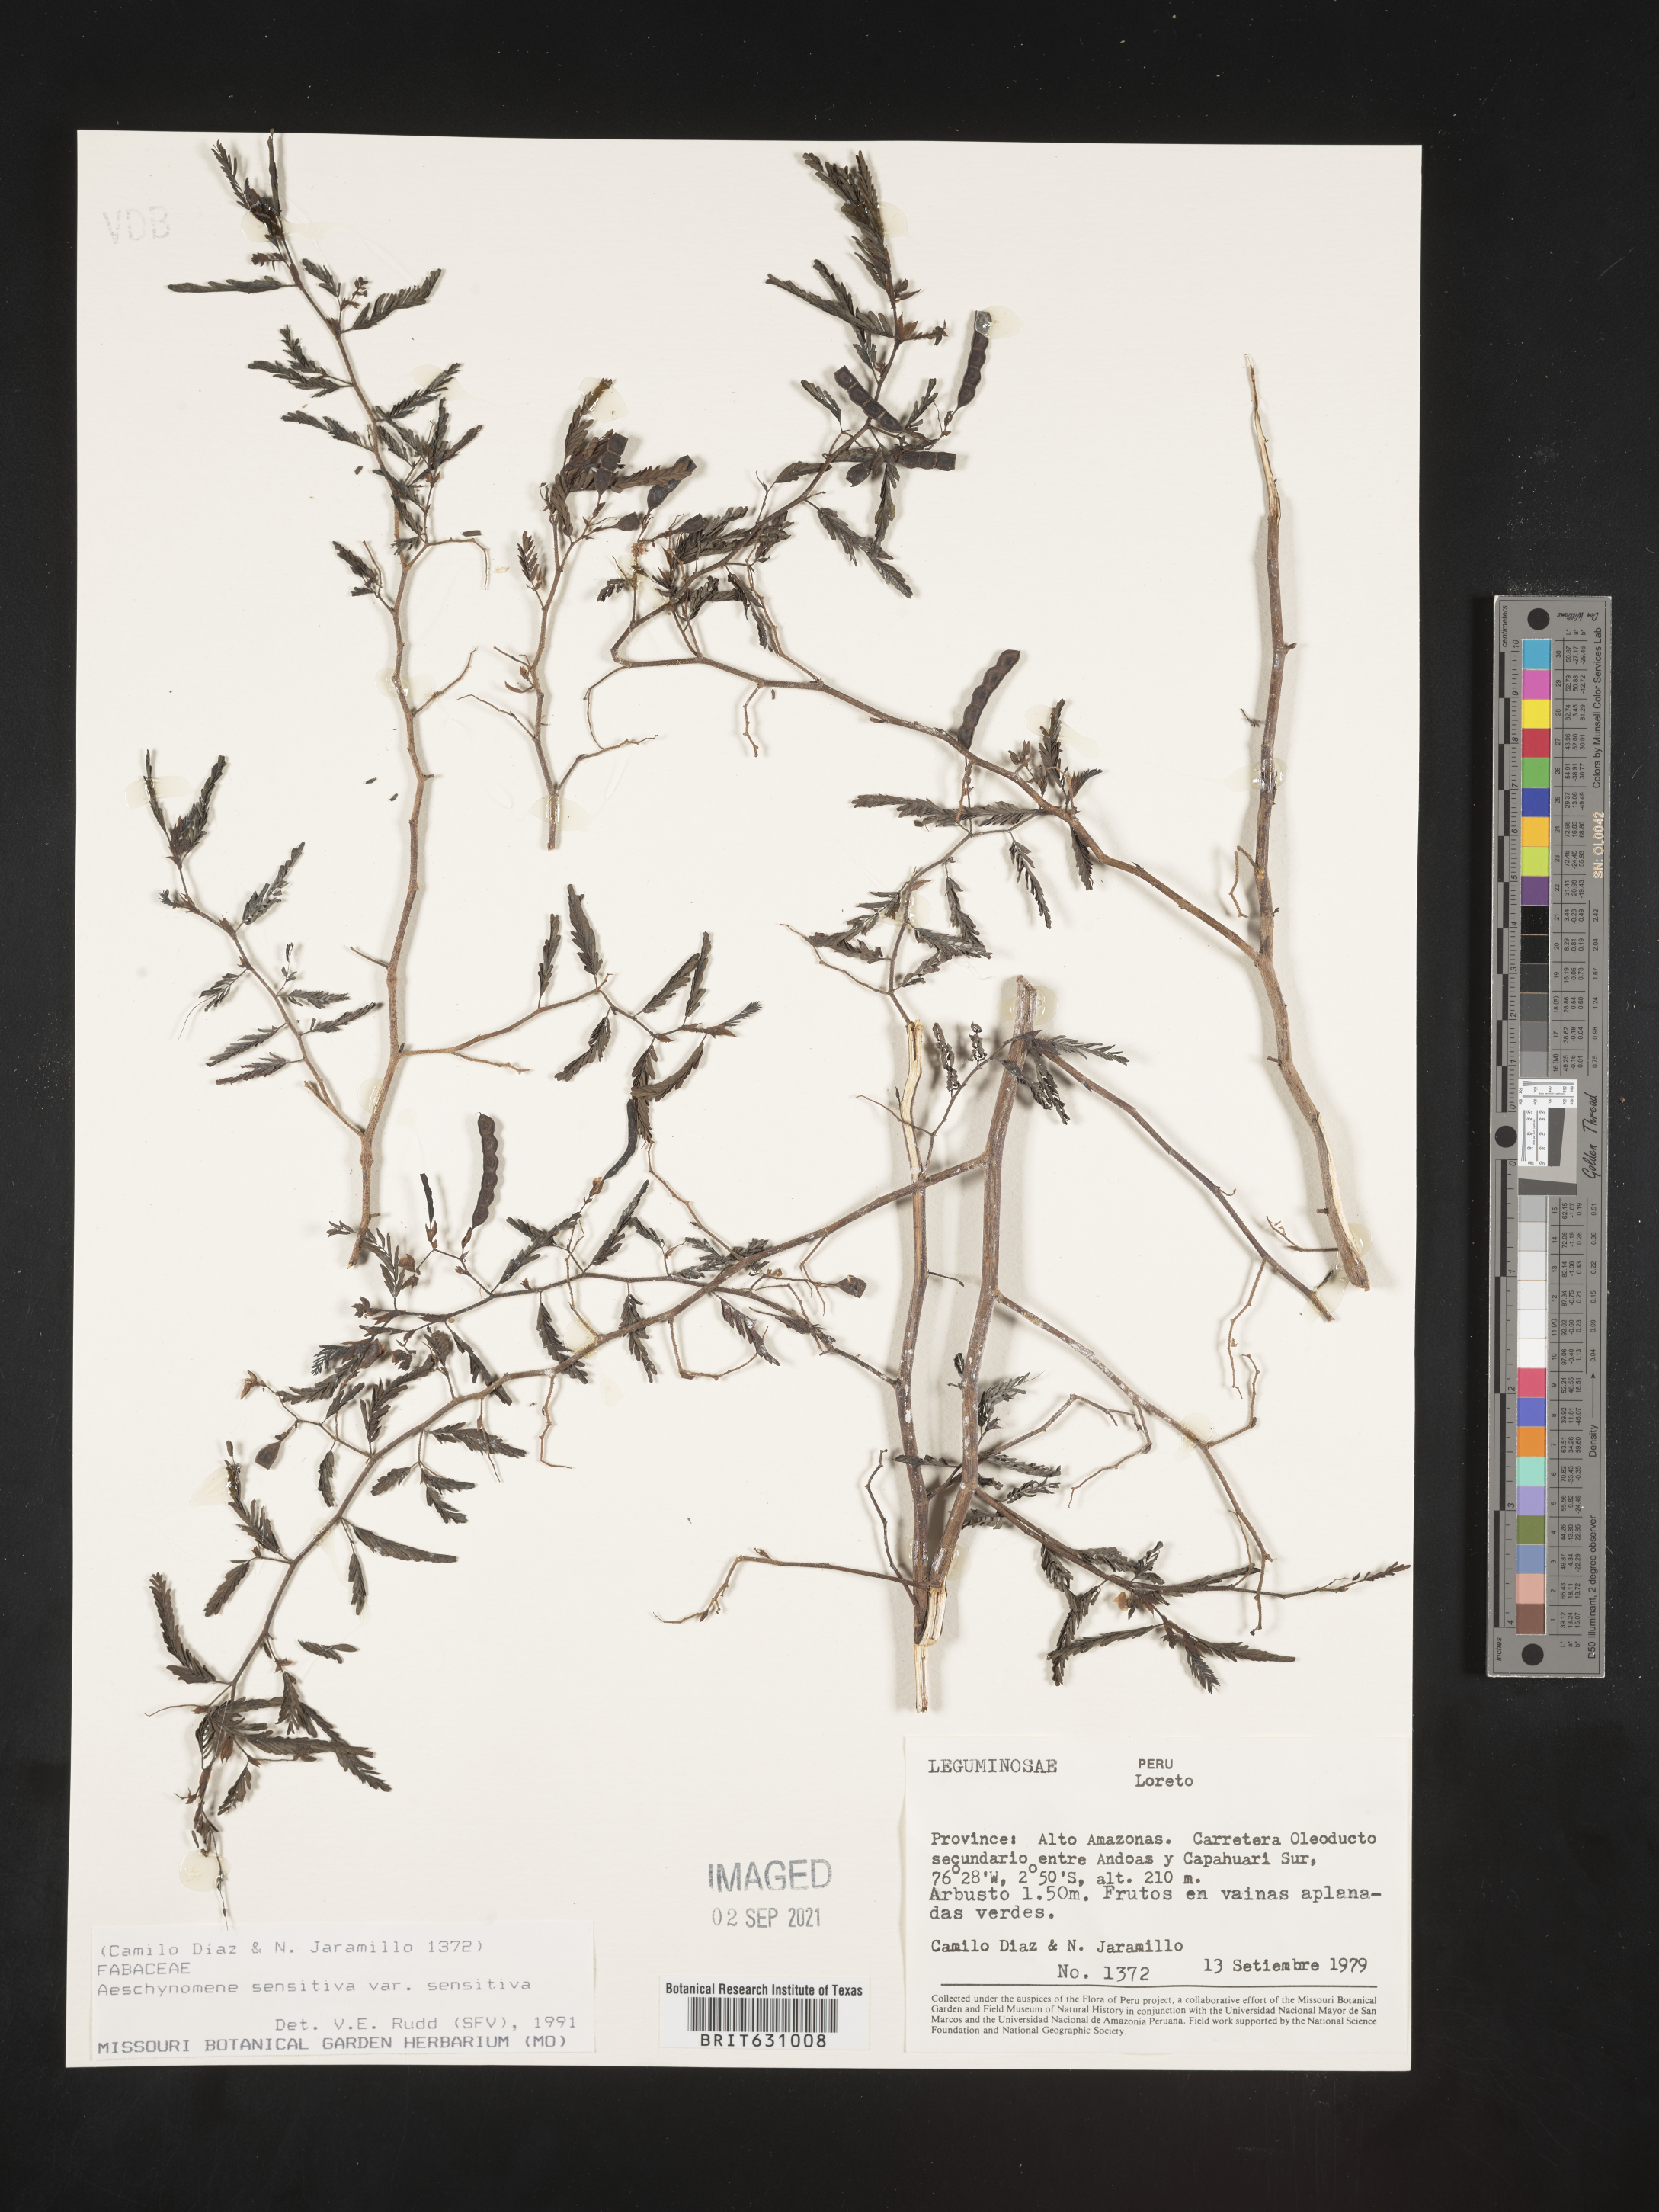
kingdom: Plantae
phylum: Tracheophyta
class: Magnoliopsida
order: Fabales
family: Fabaceae
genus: Aeschynomene
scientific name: Aeschynomene
